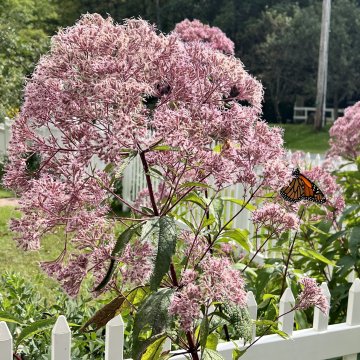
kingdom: Animalia
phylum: Arthropoda
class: Insecta
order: Lepidoptera
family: Nymphalidae
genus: Danaus
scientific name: Danaus plexippus
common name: Monarch
